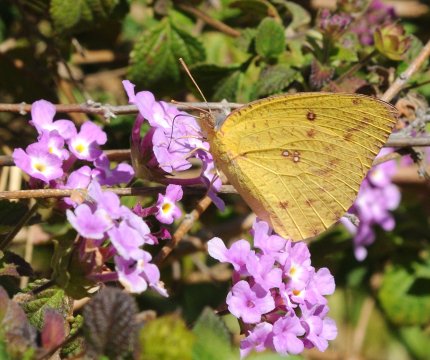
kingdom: Animalia
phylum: Arthropoda
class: Insecta
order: Lepidoptera
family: Pieridae
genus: Catopsilia
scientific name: Catopsilia florella
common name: African Migrant
